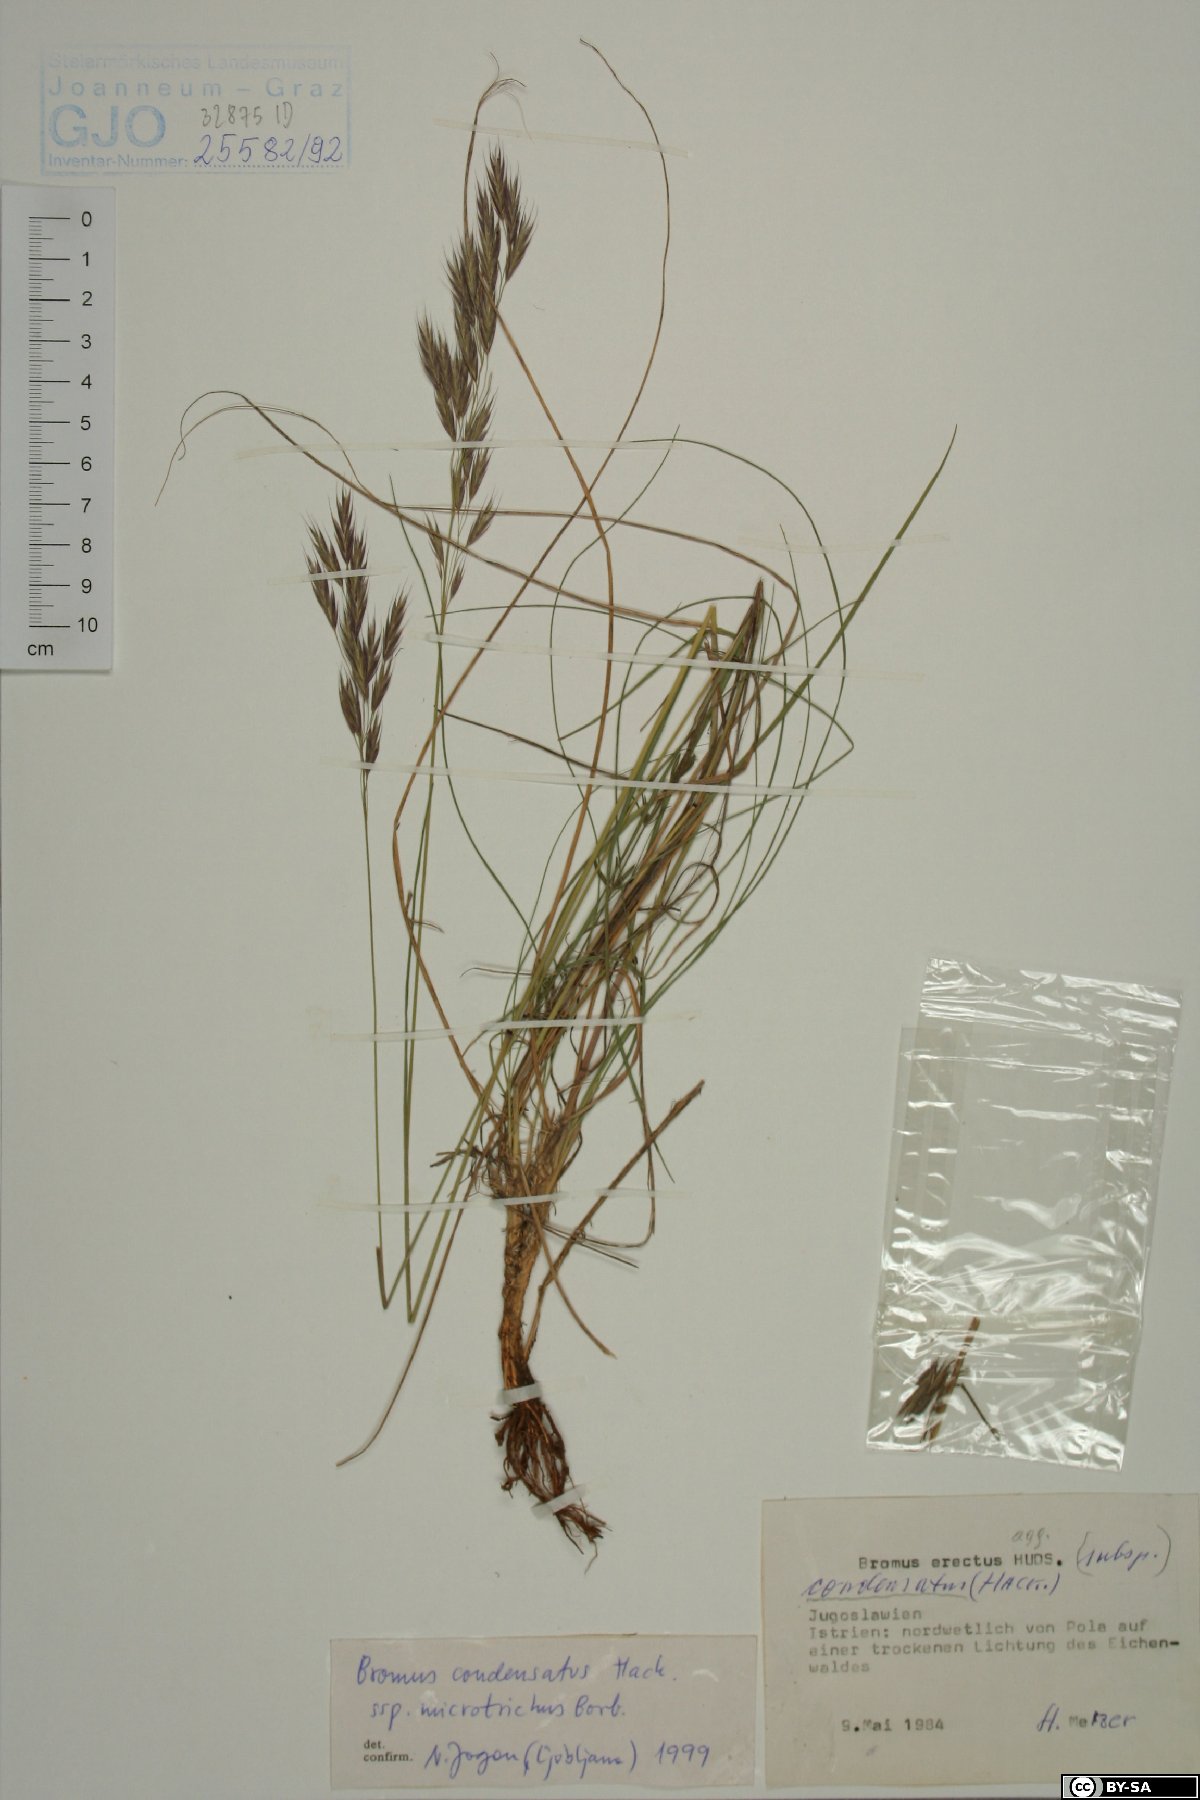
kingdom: Plantae
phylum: Tracheophyta
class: Liliopsida
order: Poales
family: Poaceae
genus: Bromus
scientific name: Bromus condensatus
